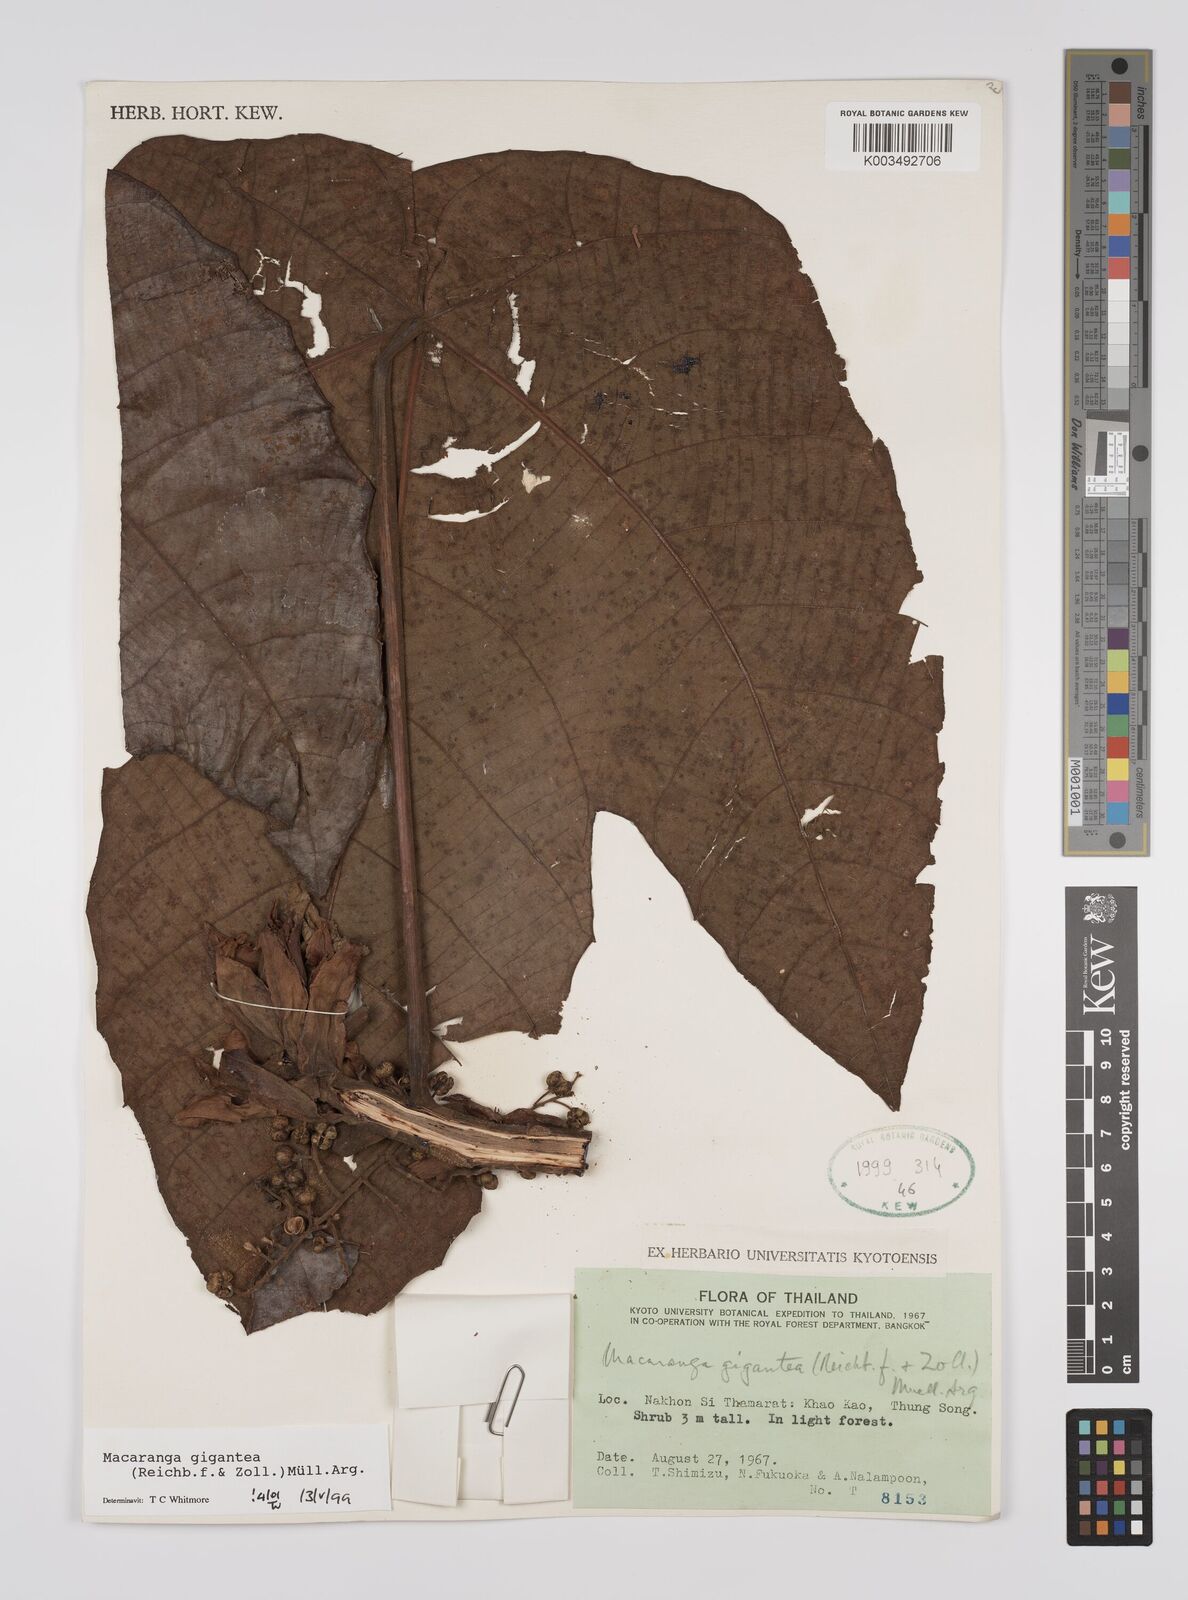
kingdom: Plantae
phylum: Tracheophyta
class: Magnoliopsida
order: Malpighiales
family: Euphorbiaceae
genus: Macaranga
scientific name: Macaranga gigantea
